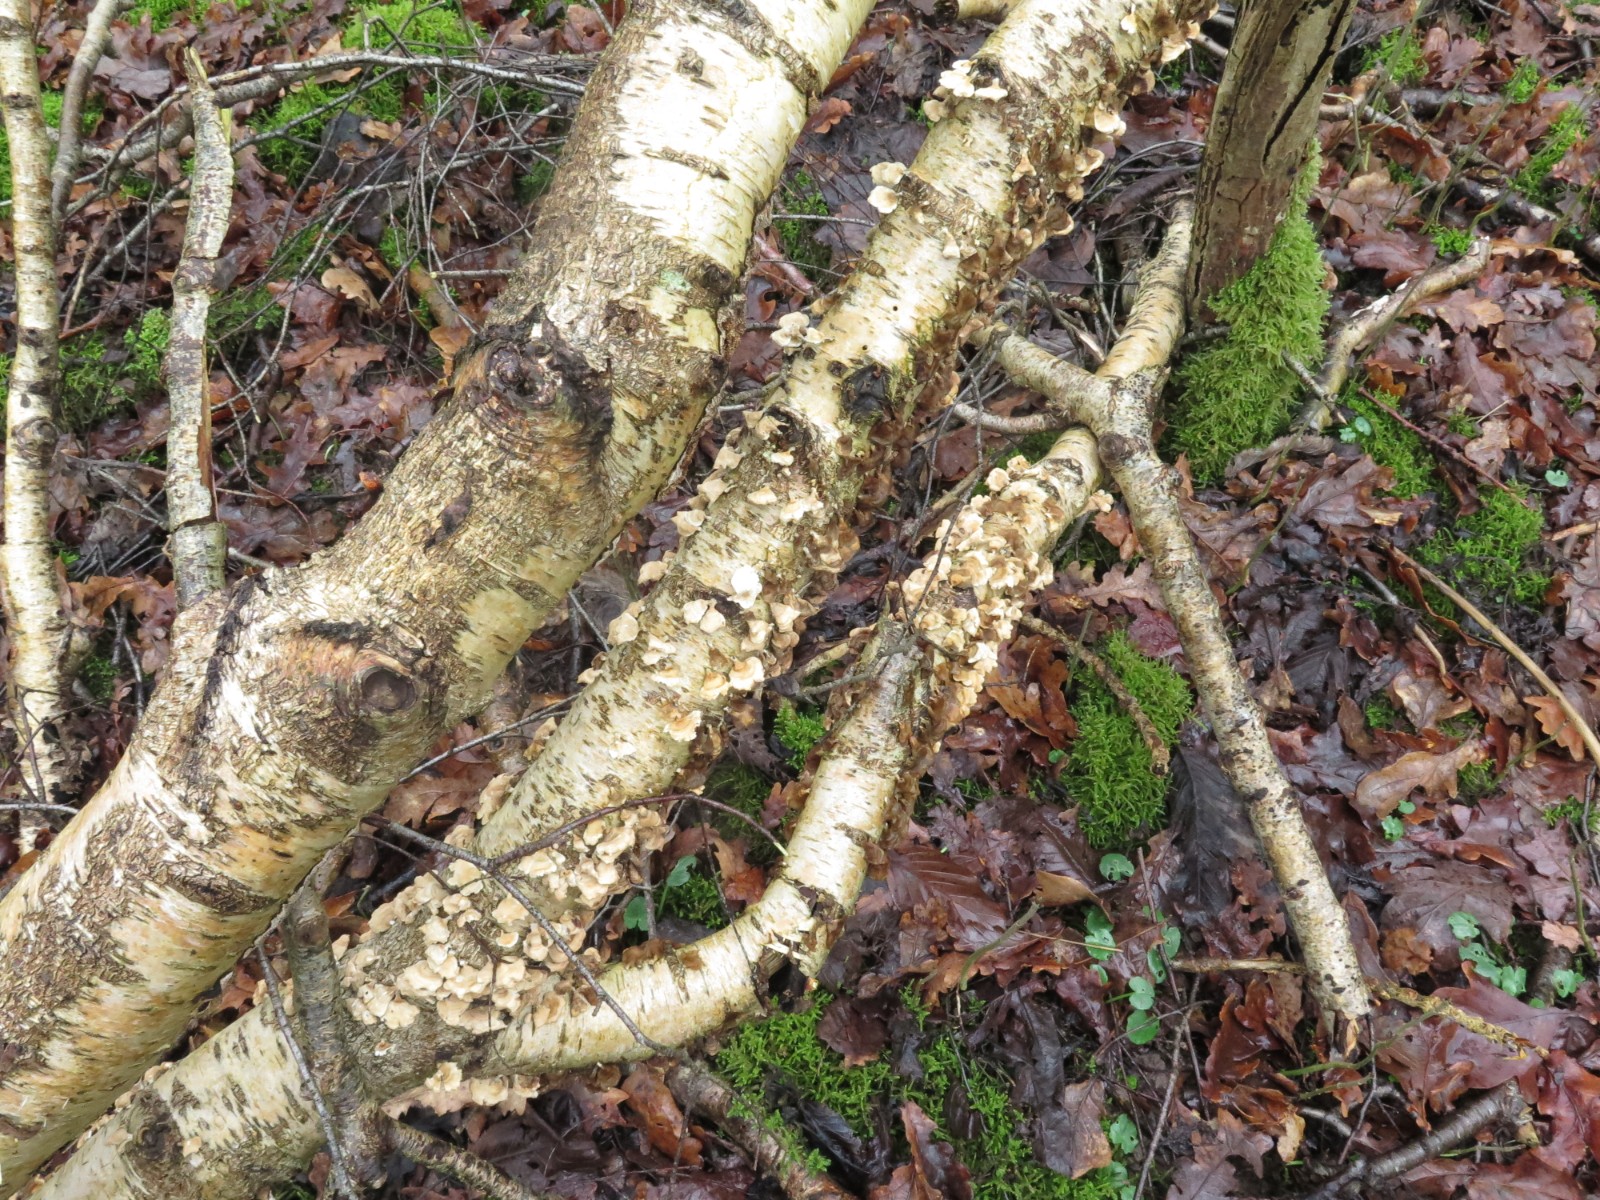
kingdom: Fungi
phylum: Basidiomycota
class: Agaricomycetes
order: Amylocorticiales
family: Amylocorticiaceae
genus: Plicaturopsis
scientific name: Plicaturopsis crispa
